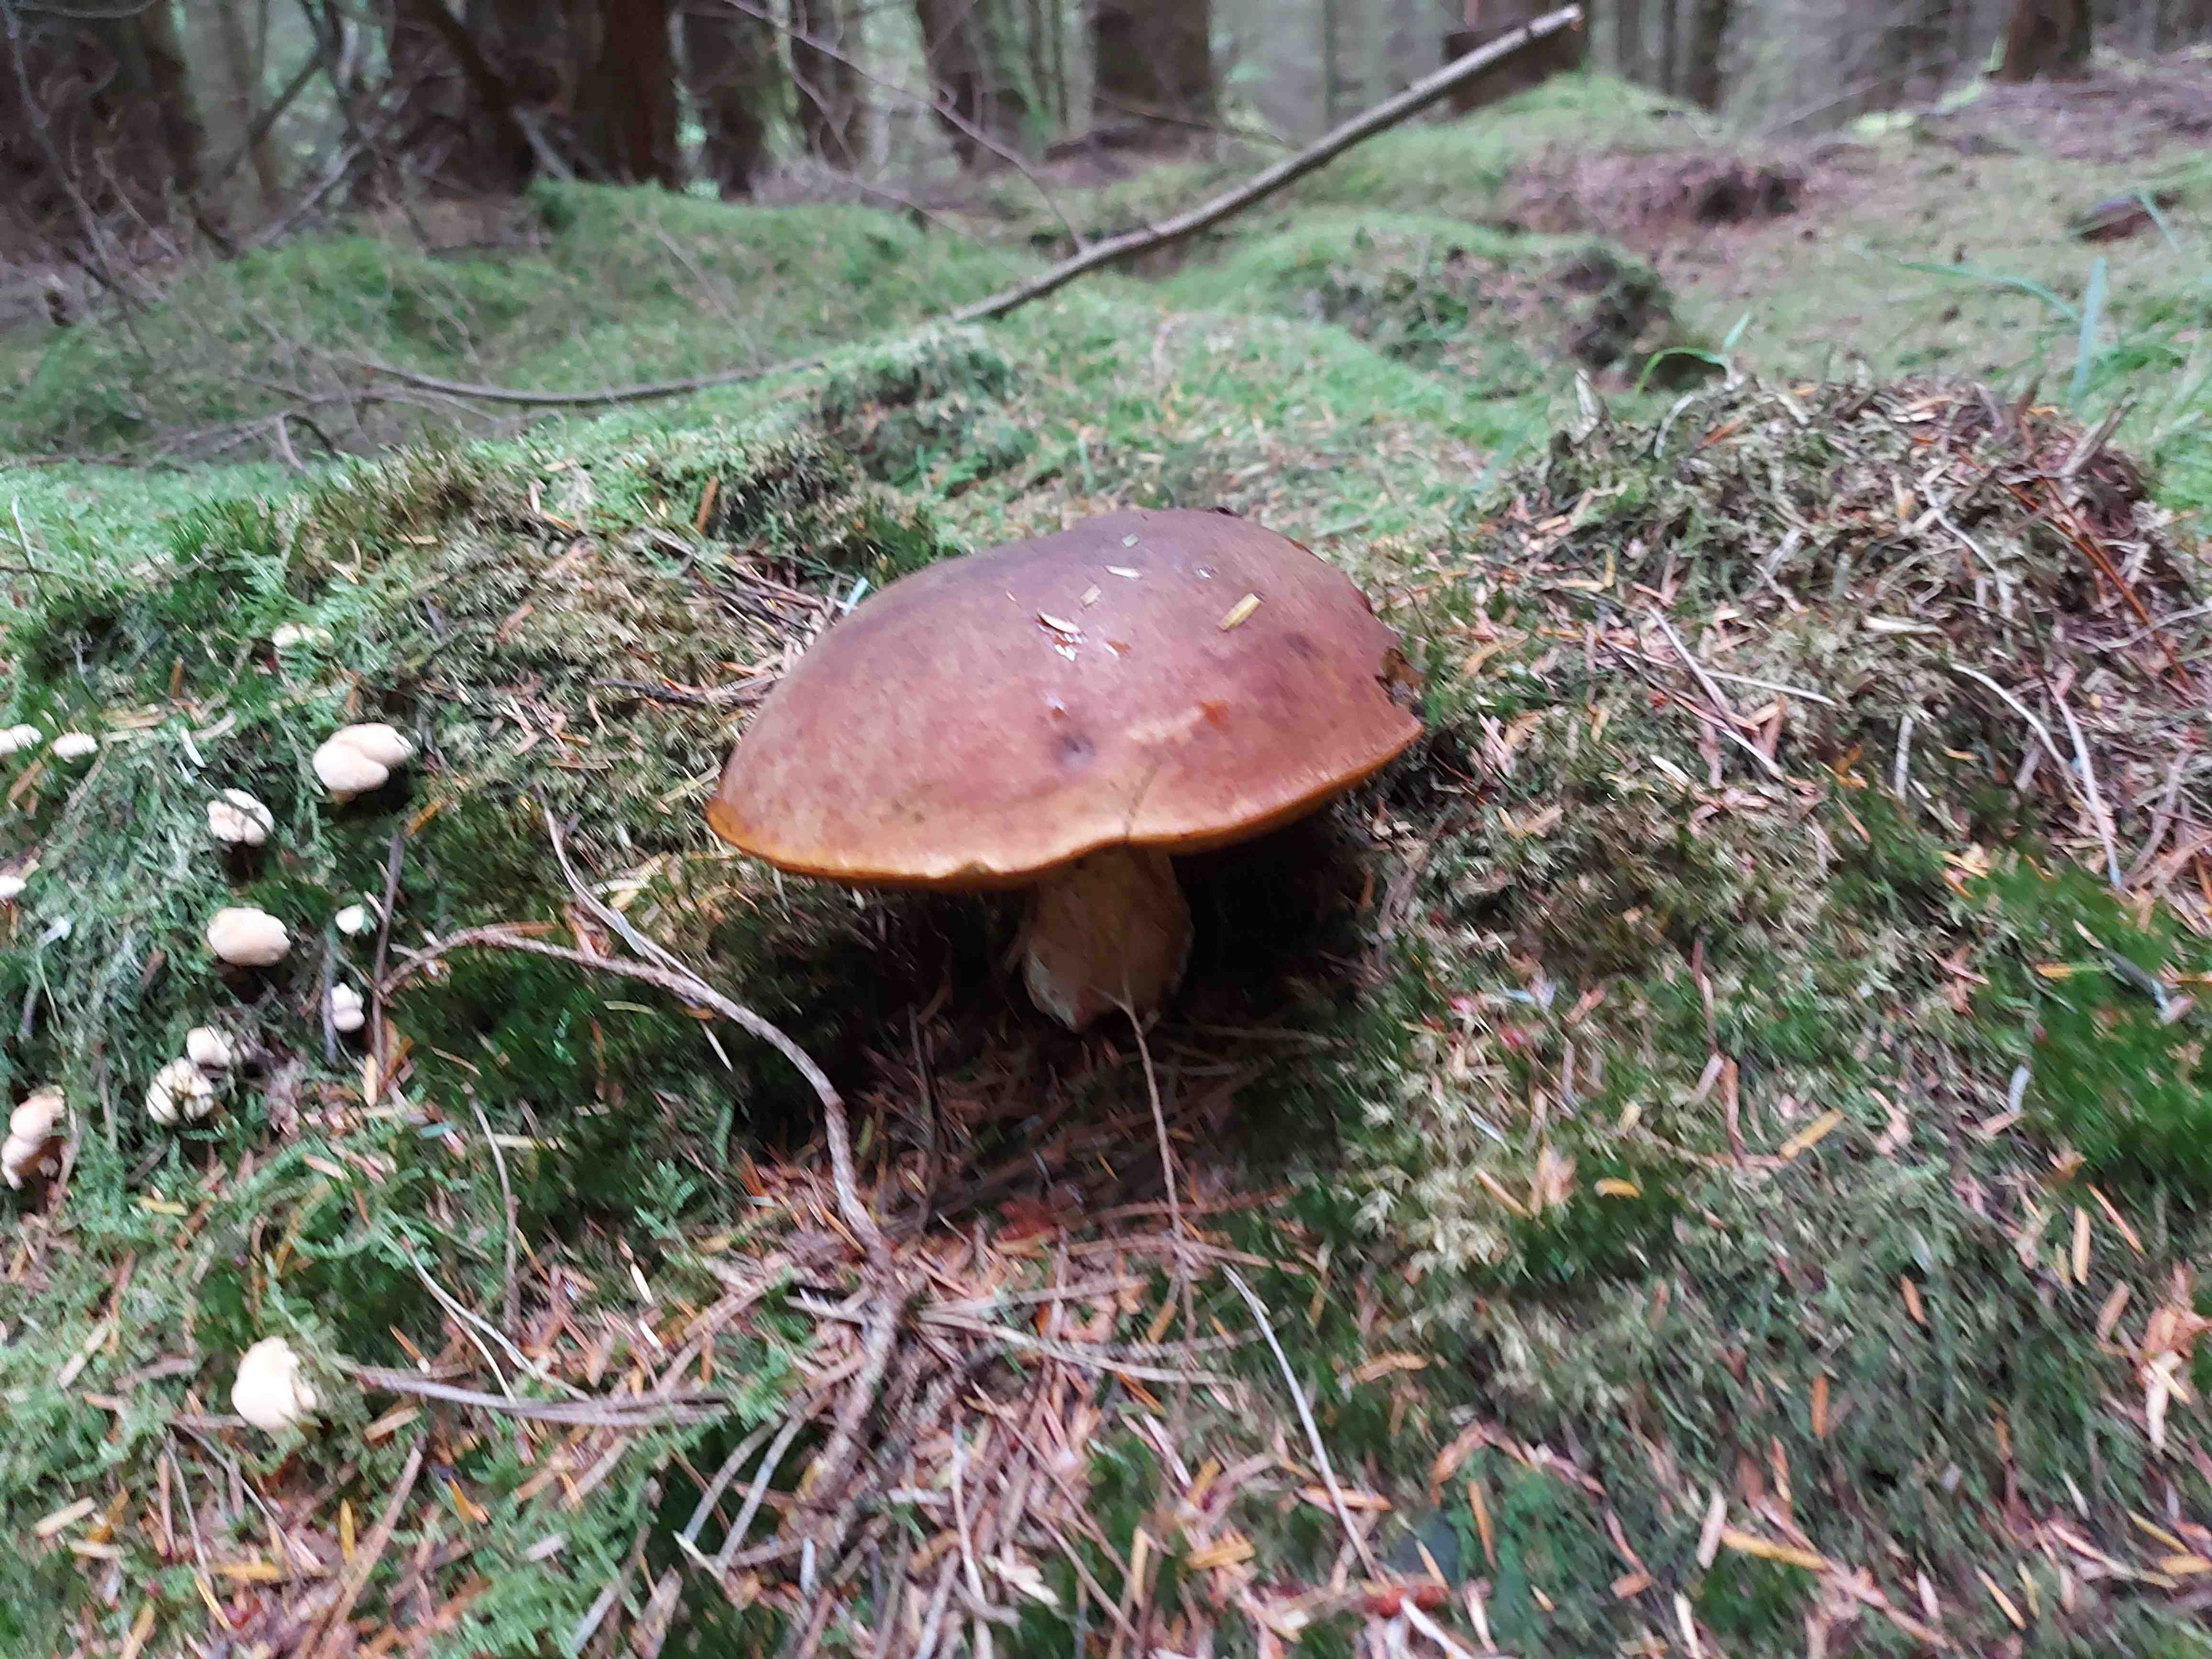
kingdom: Fungi
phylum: Basidiomycota
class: Agaricomycetes
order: Boletales
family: Boletaceae
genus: Neoboletus
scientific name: Neoboletus erythropus
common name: punktstokket indigorørhat
